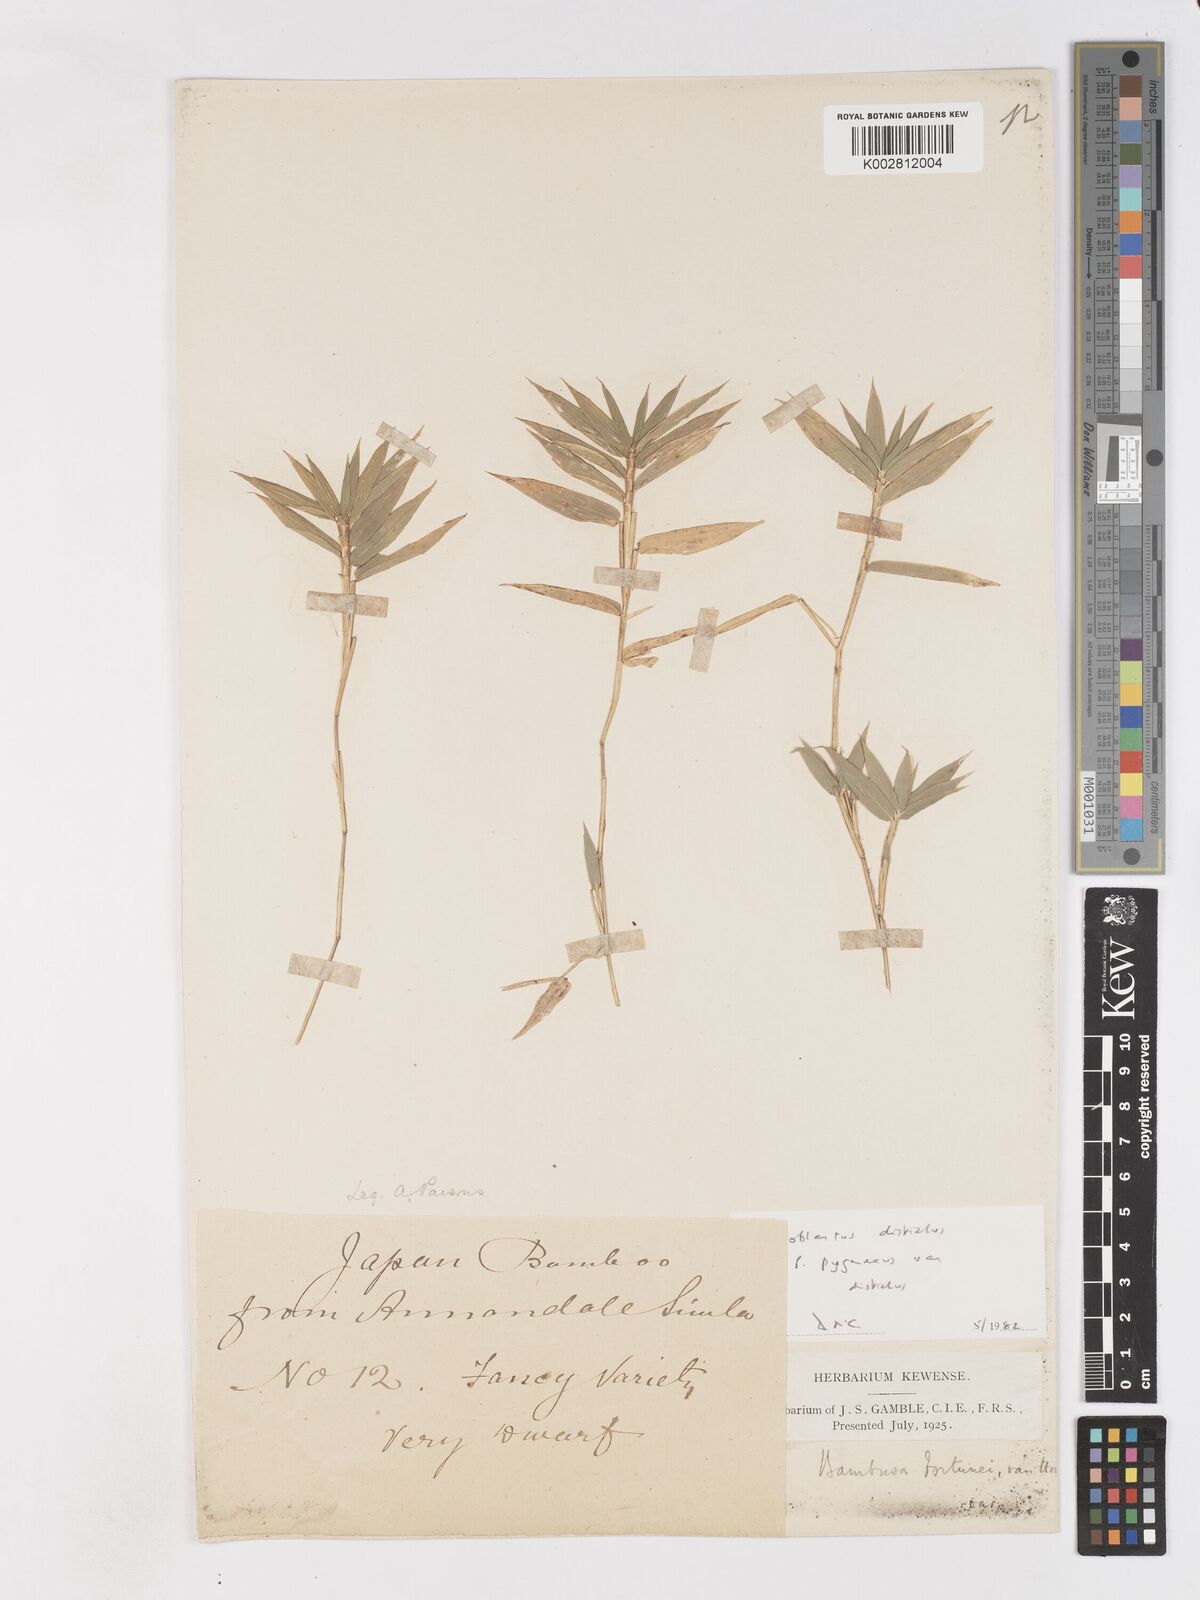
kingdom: Plantae
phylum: Tracheophyta
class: Liliopsida
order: Poales
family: Poaceae
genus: Pleioblastus
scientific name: Pleioblastus amarus
